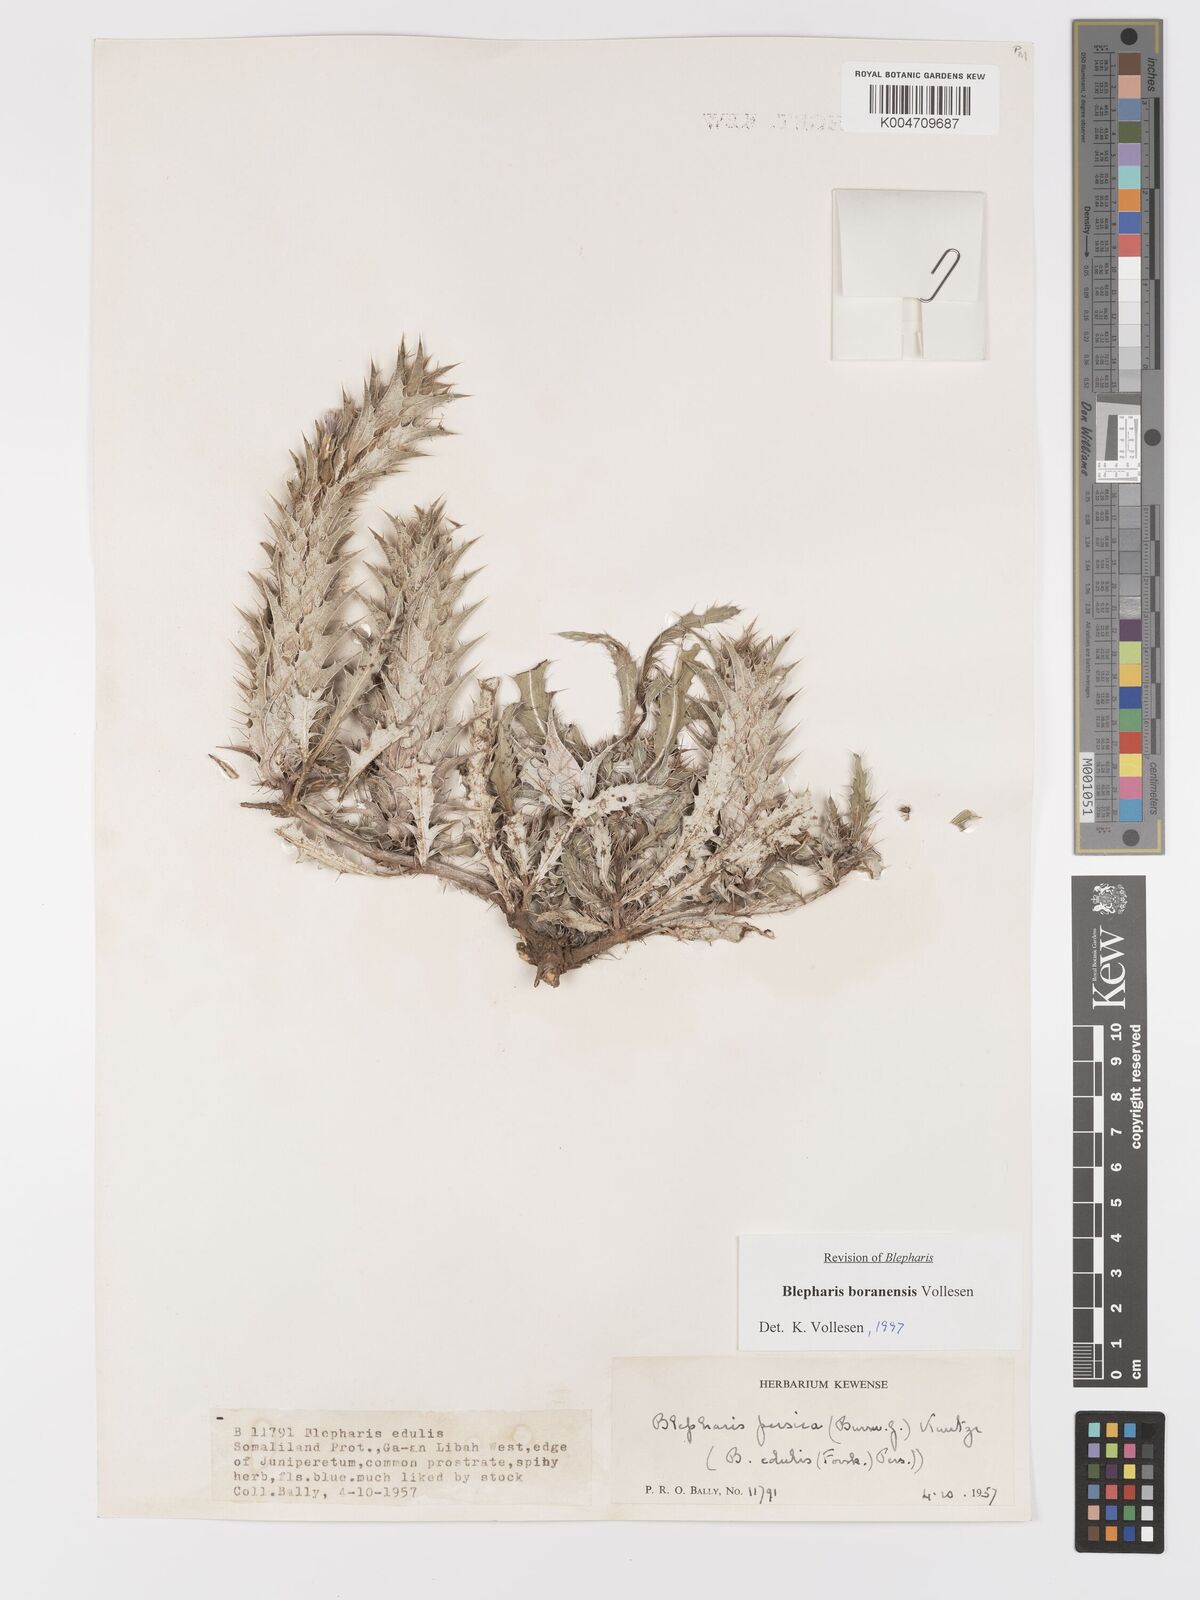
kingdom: Plantae
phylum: Tracheophyta
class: Magnoliopsida
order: Lamiales
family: Acanthaceae
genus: Blepharis
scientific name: Blepharis boranensis
